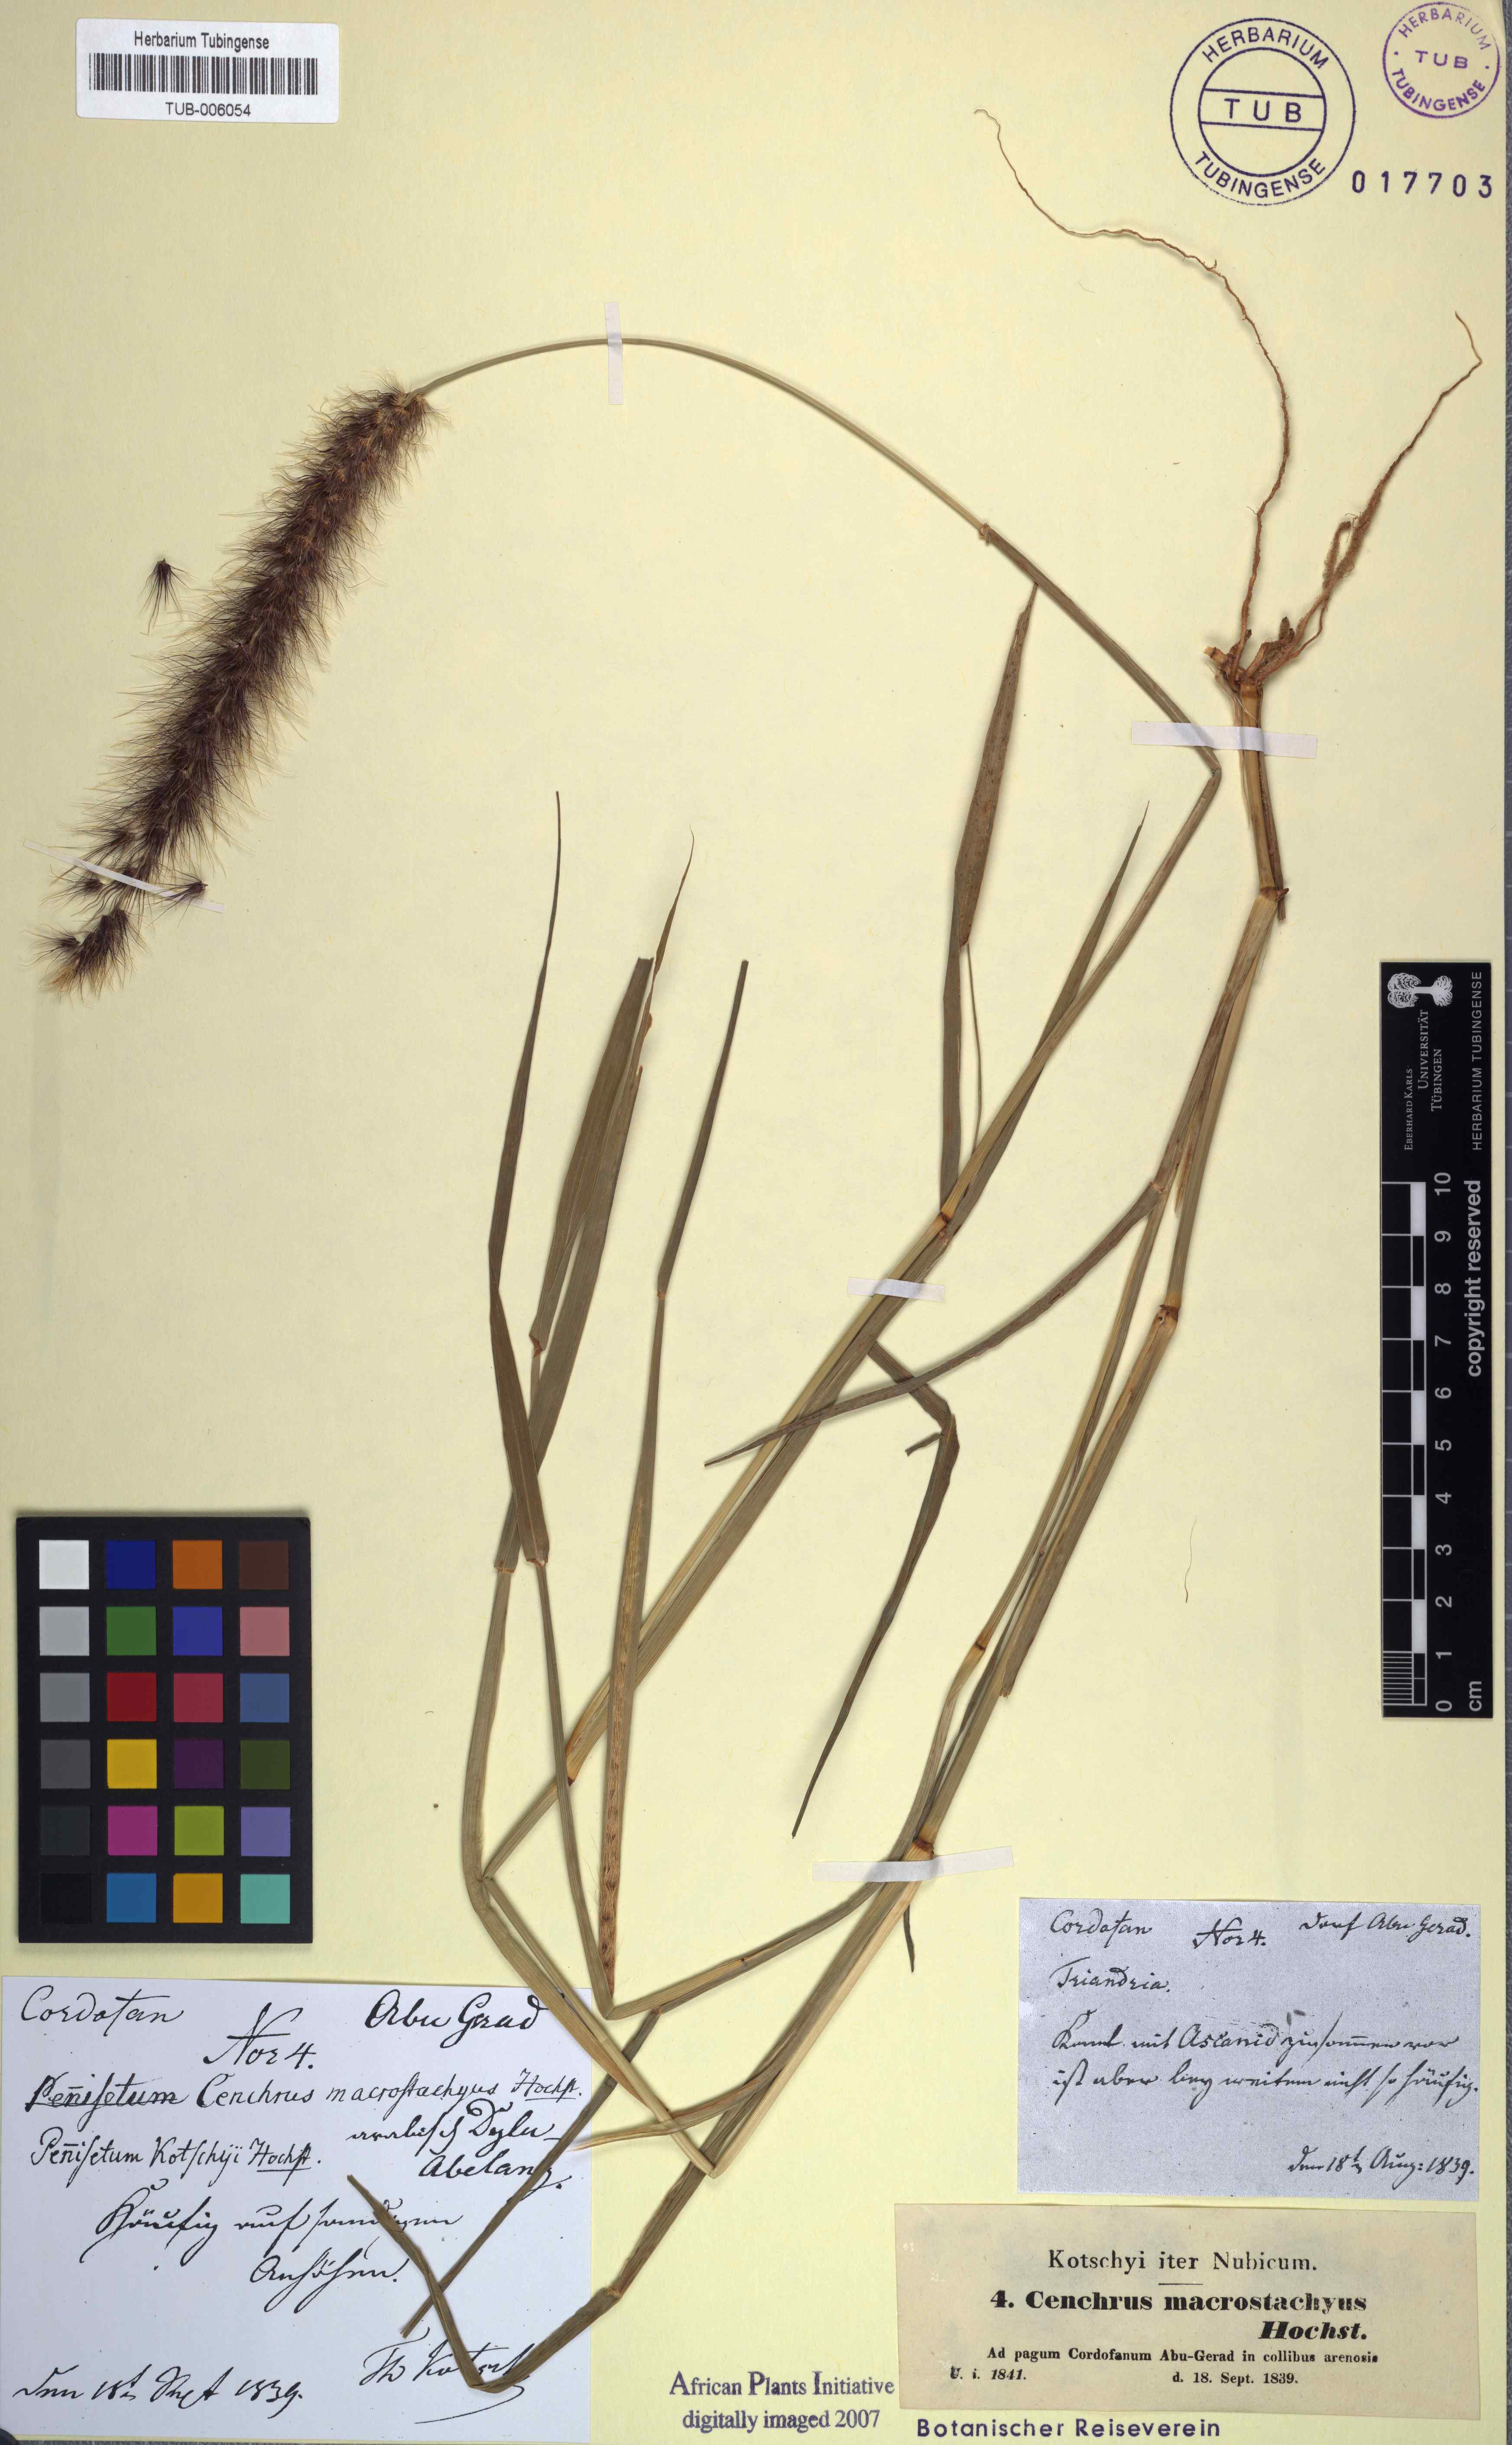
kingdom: Plantae
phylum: Tracheophyta
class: Liliopsida
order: Poales
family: Poaceae
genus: Cenchrus
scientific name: Cenchrus prieurii
